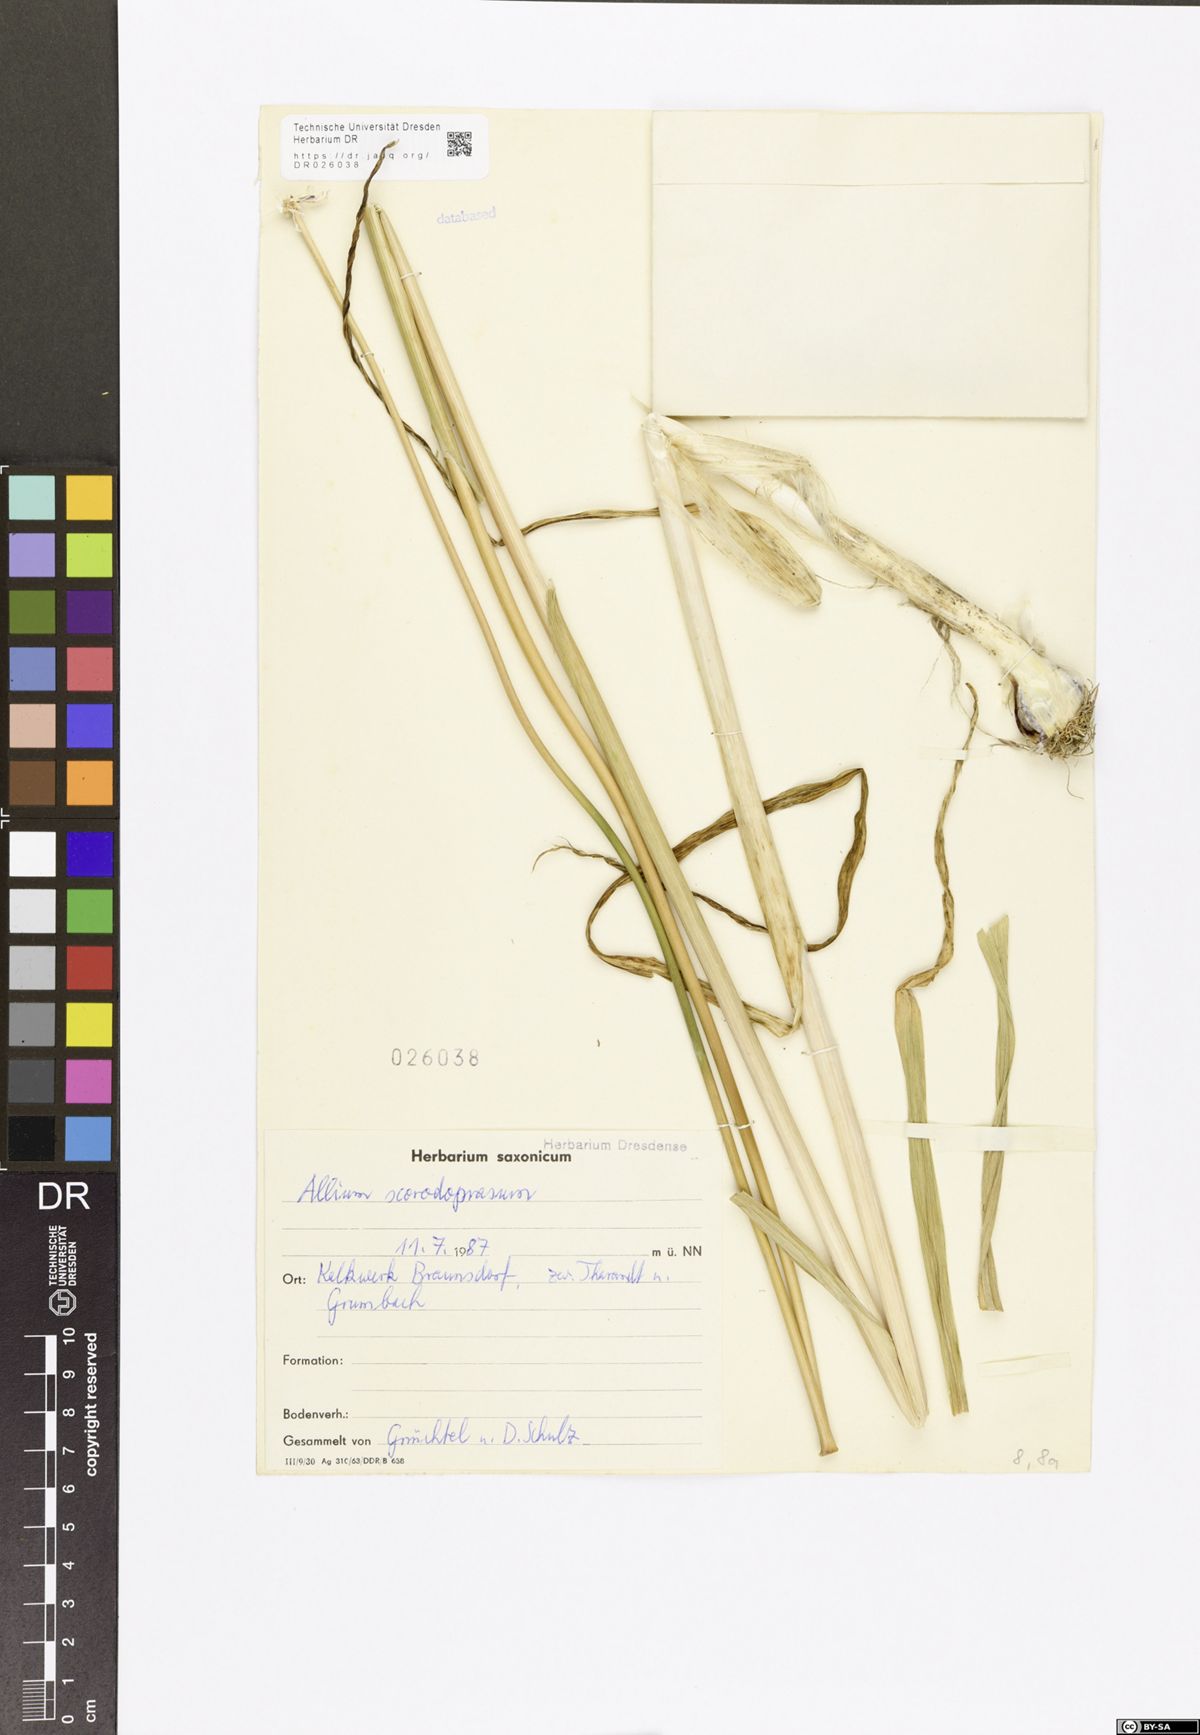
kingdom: Plantae
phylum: Tracheophyta
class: Liliopsida
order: Asparagales
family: Amaryllidaceae
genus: Allium
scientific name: Allium scorodoprasum
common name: Sand leek
